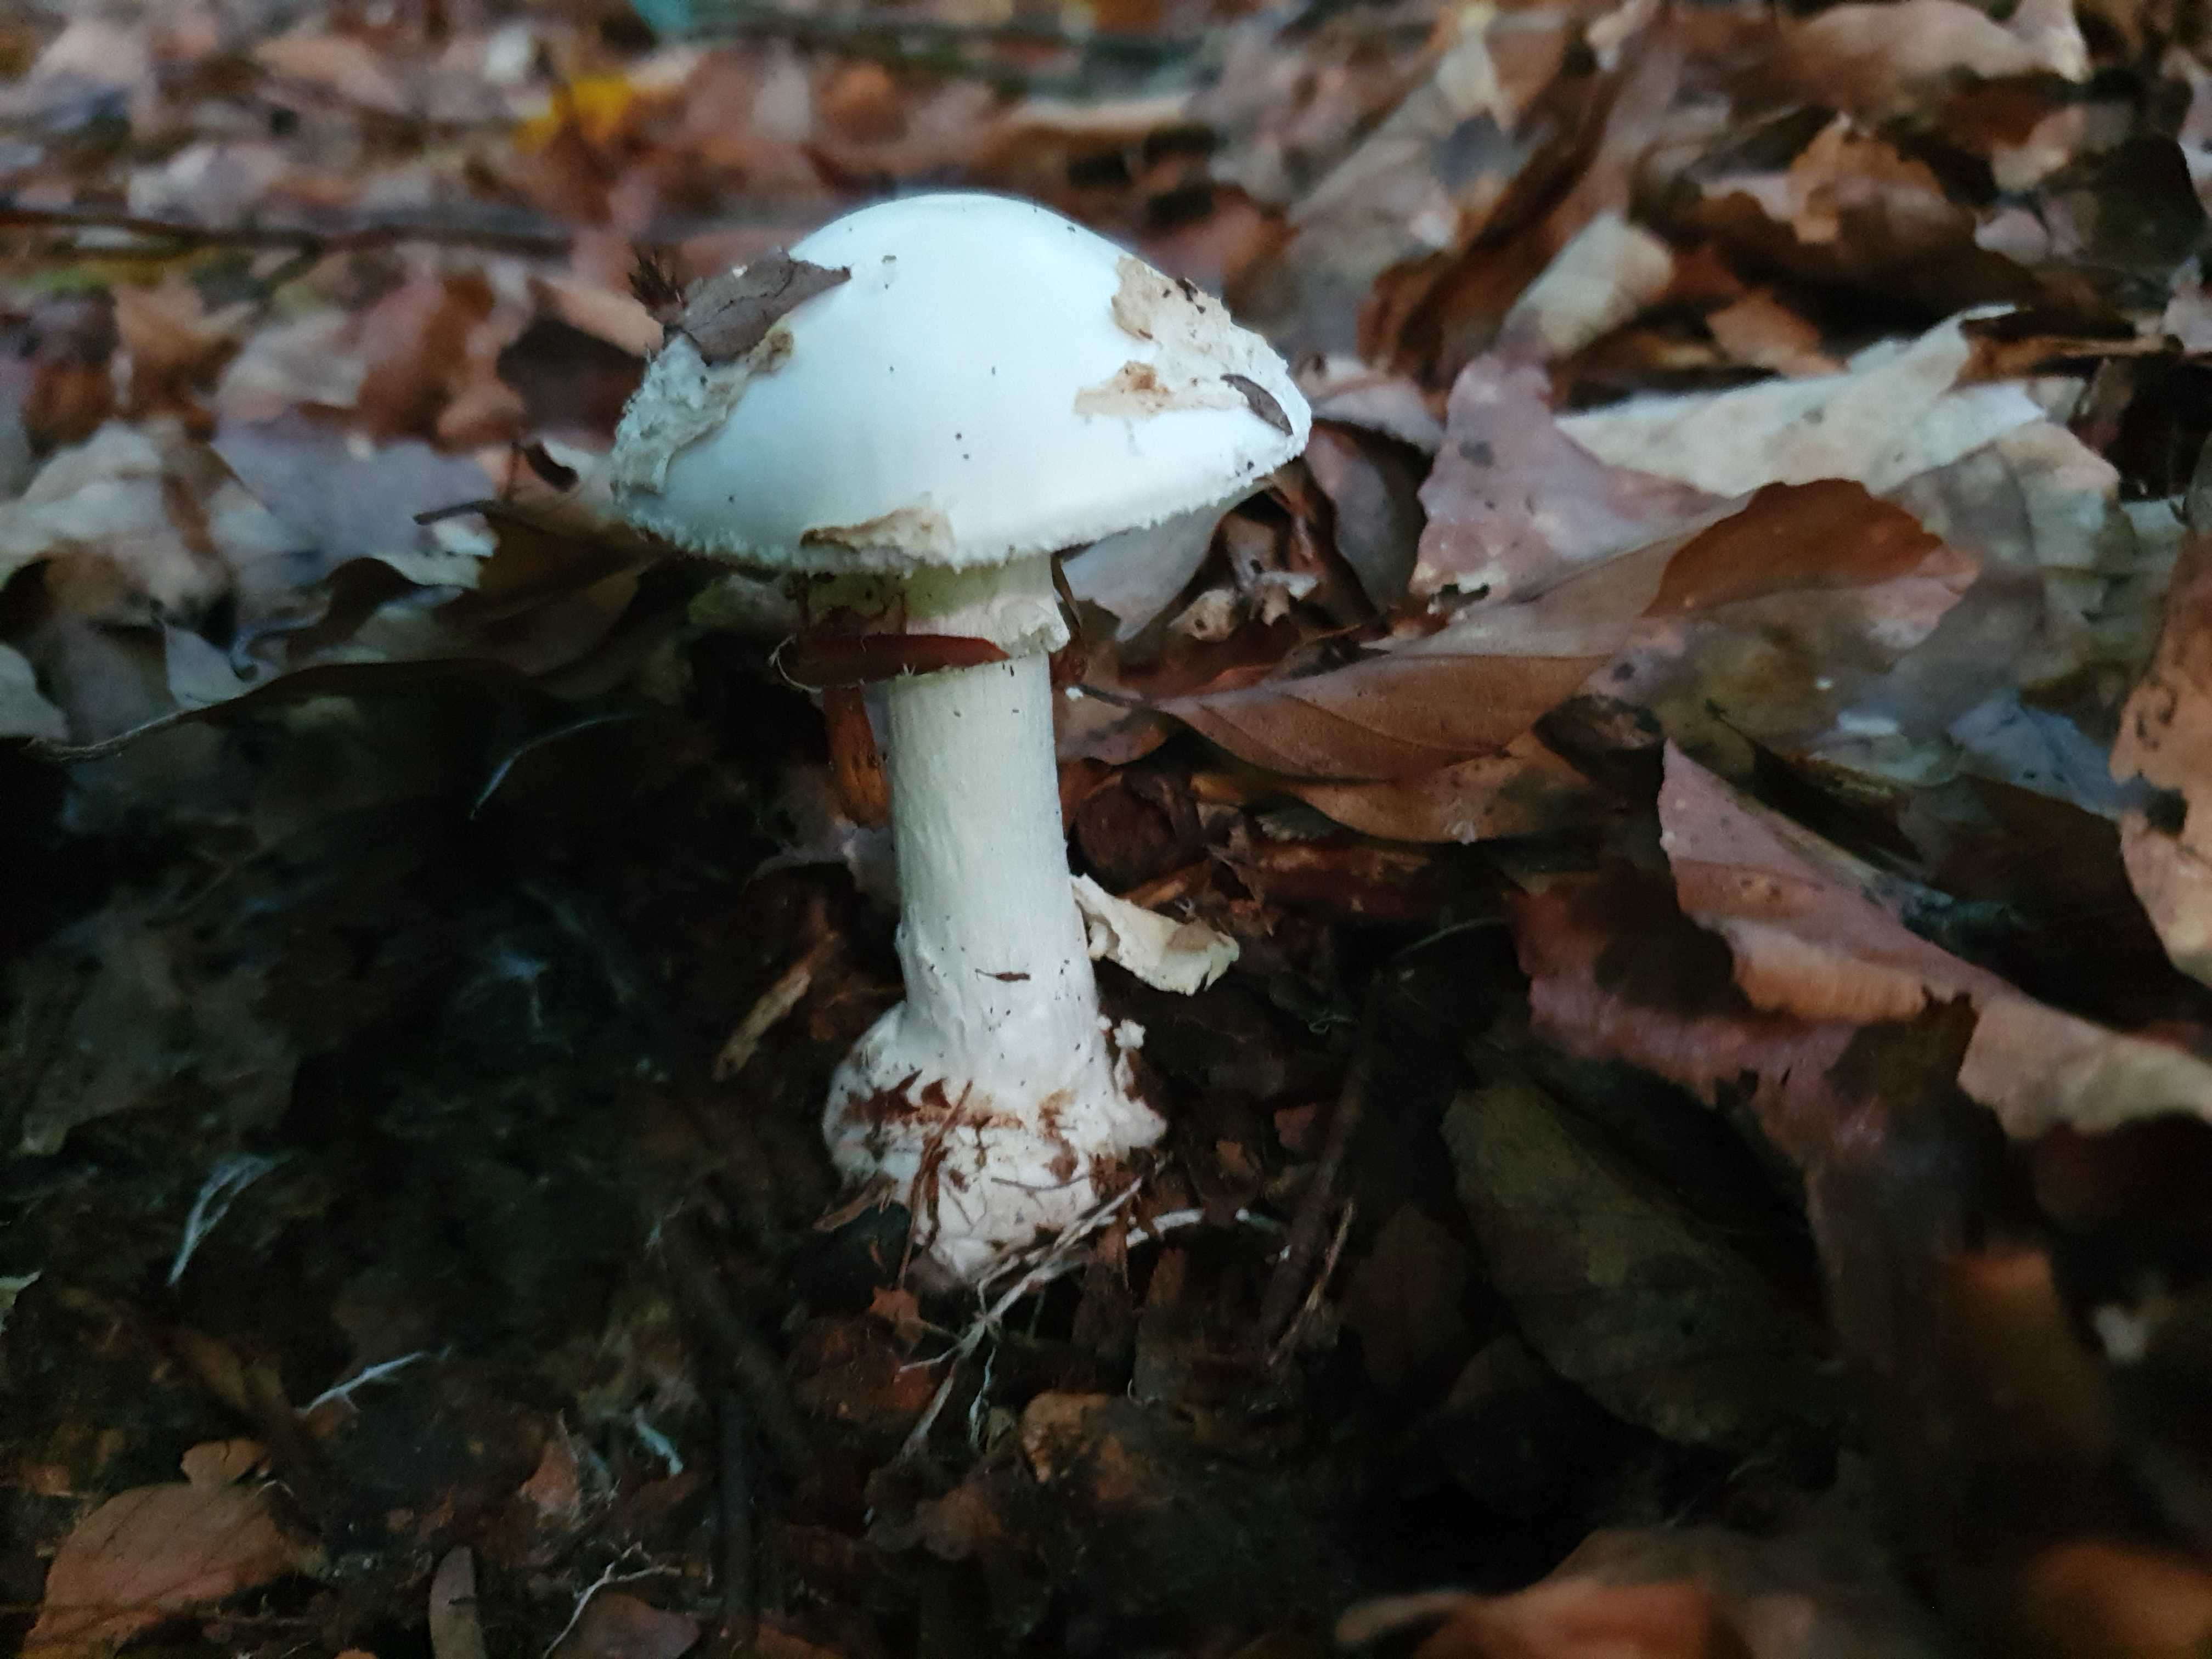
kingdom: Fungi
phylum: Basidiomycota
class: Agaricomycetes
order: Agaricales
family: Amanitaceae
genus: Amanita
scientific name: Amanita citrina
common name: kugleknoldet fluesvamp
